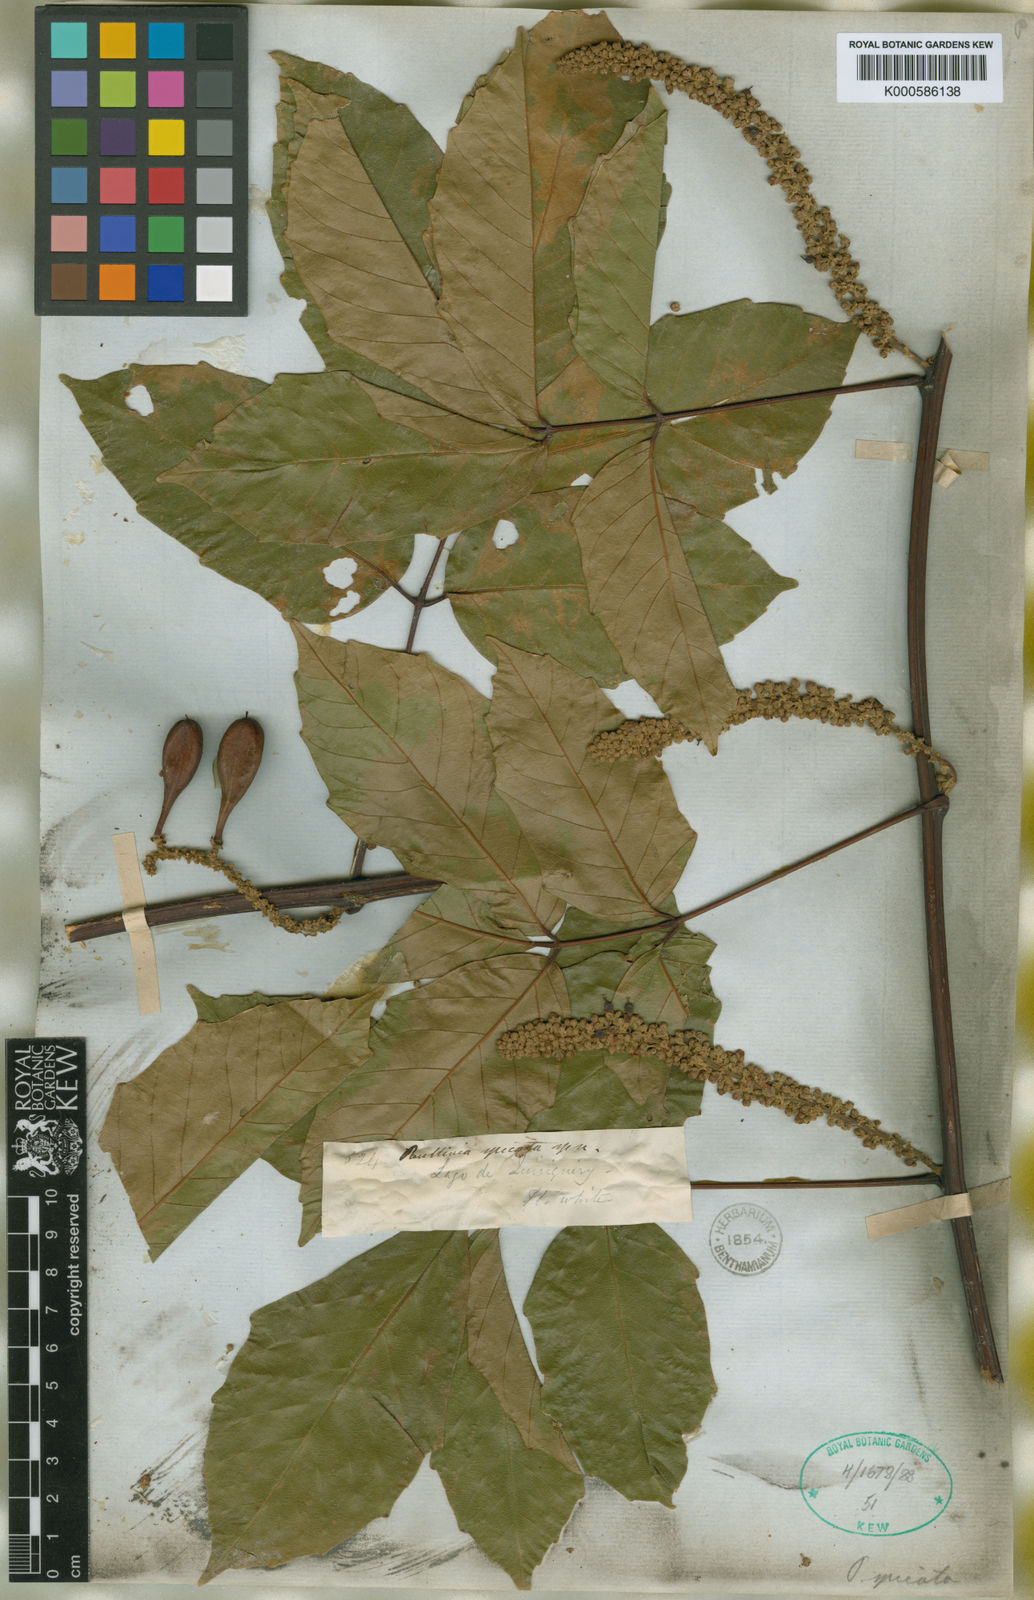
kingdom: Plantae
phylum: Tracheophyta
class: Magnoliopsida
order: Sapindales
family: Sapindaceae
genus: Paullinia
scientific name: Paullinia spicata
